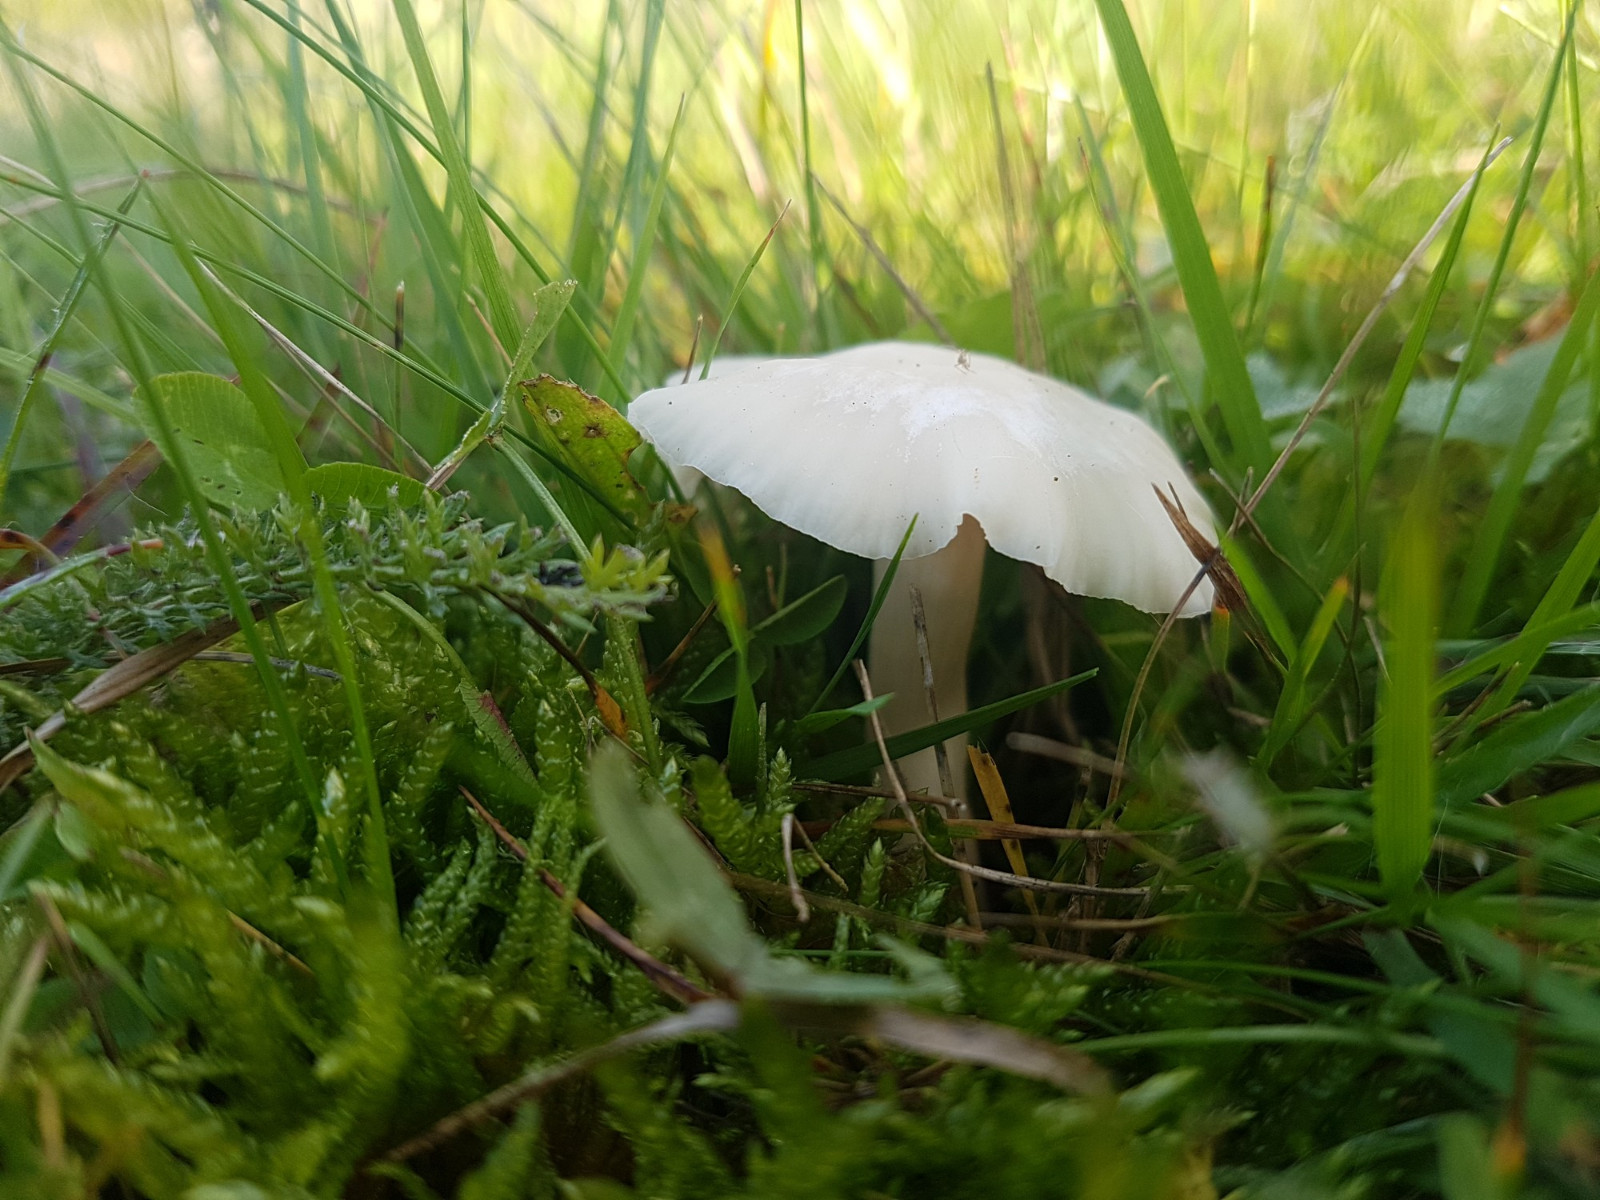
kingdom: Fungi
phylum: Basidiomycota
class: Agaricomycetes
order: Agaricales
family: Hygrophoraceae
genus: Cuphophyllus
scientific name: Cuphophyllus virgineus
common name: snehvid vokshat
